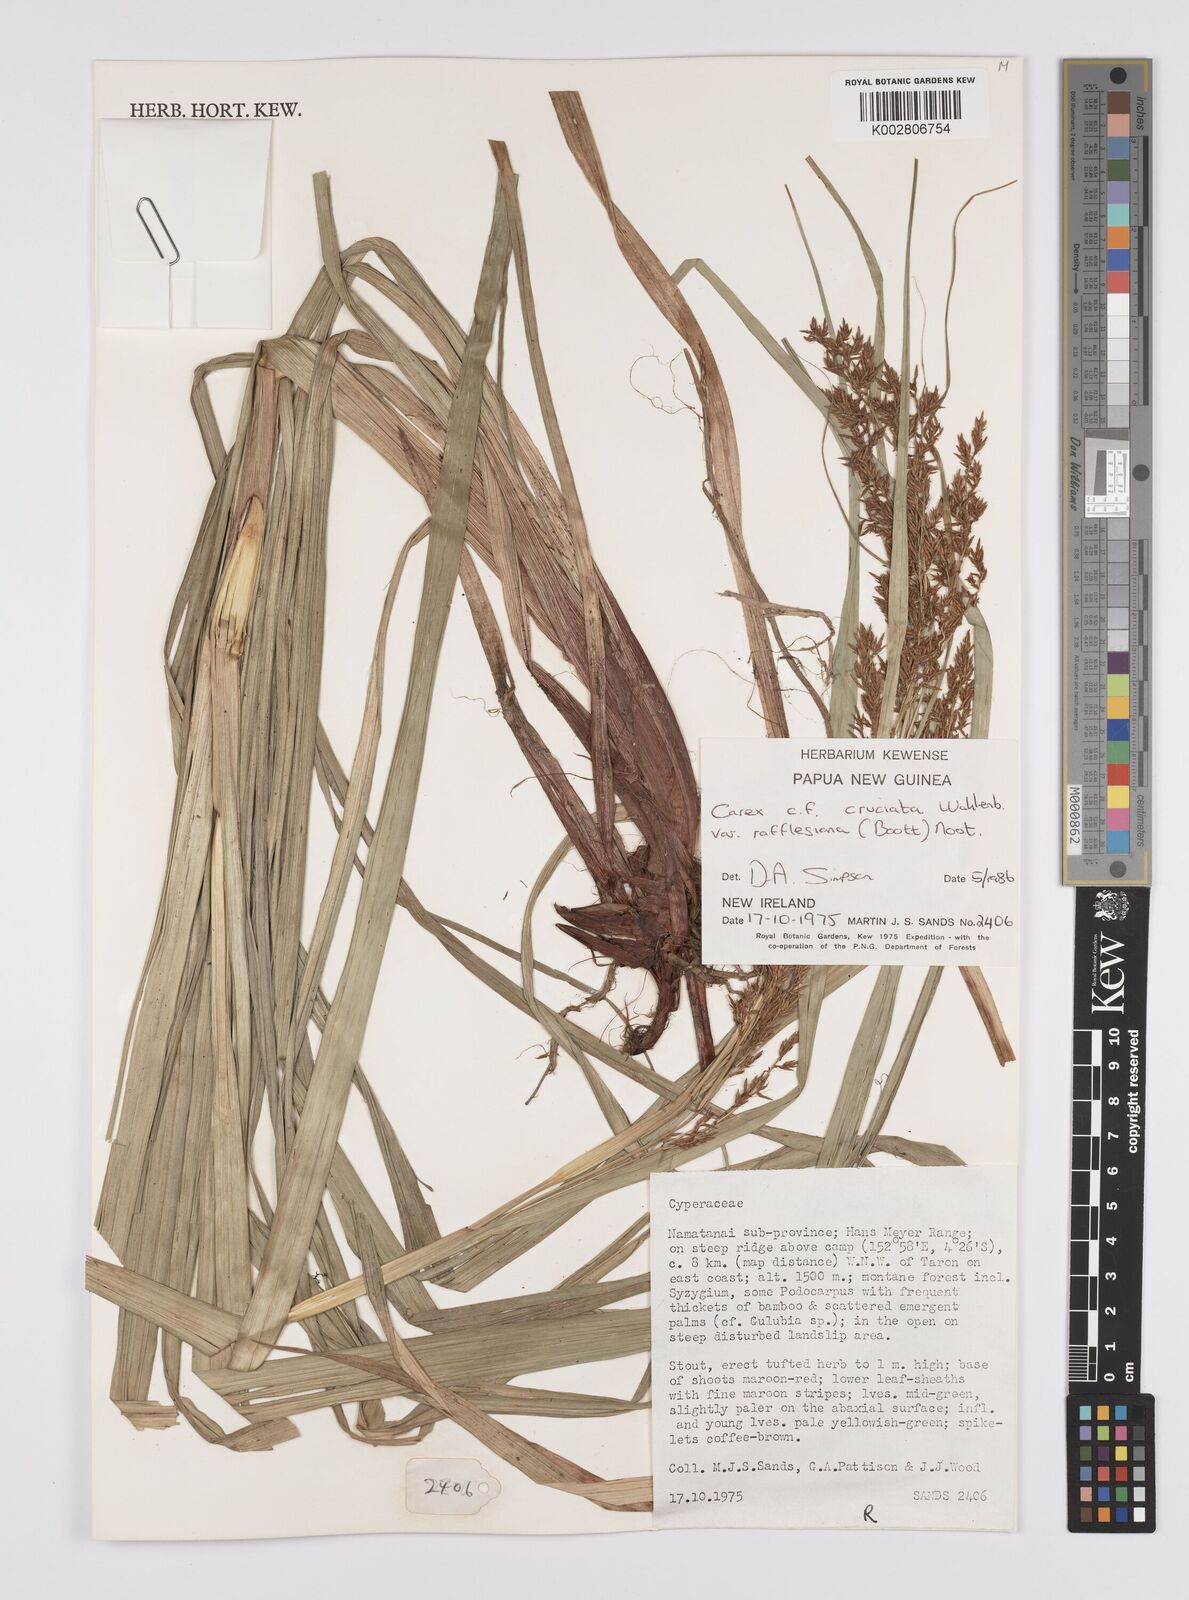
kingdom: Plantae
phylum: Tracheophyta
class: Liliopsida
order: Poales
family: Cyperaceae
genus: Carex
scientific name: Carex rafflesiana
